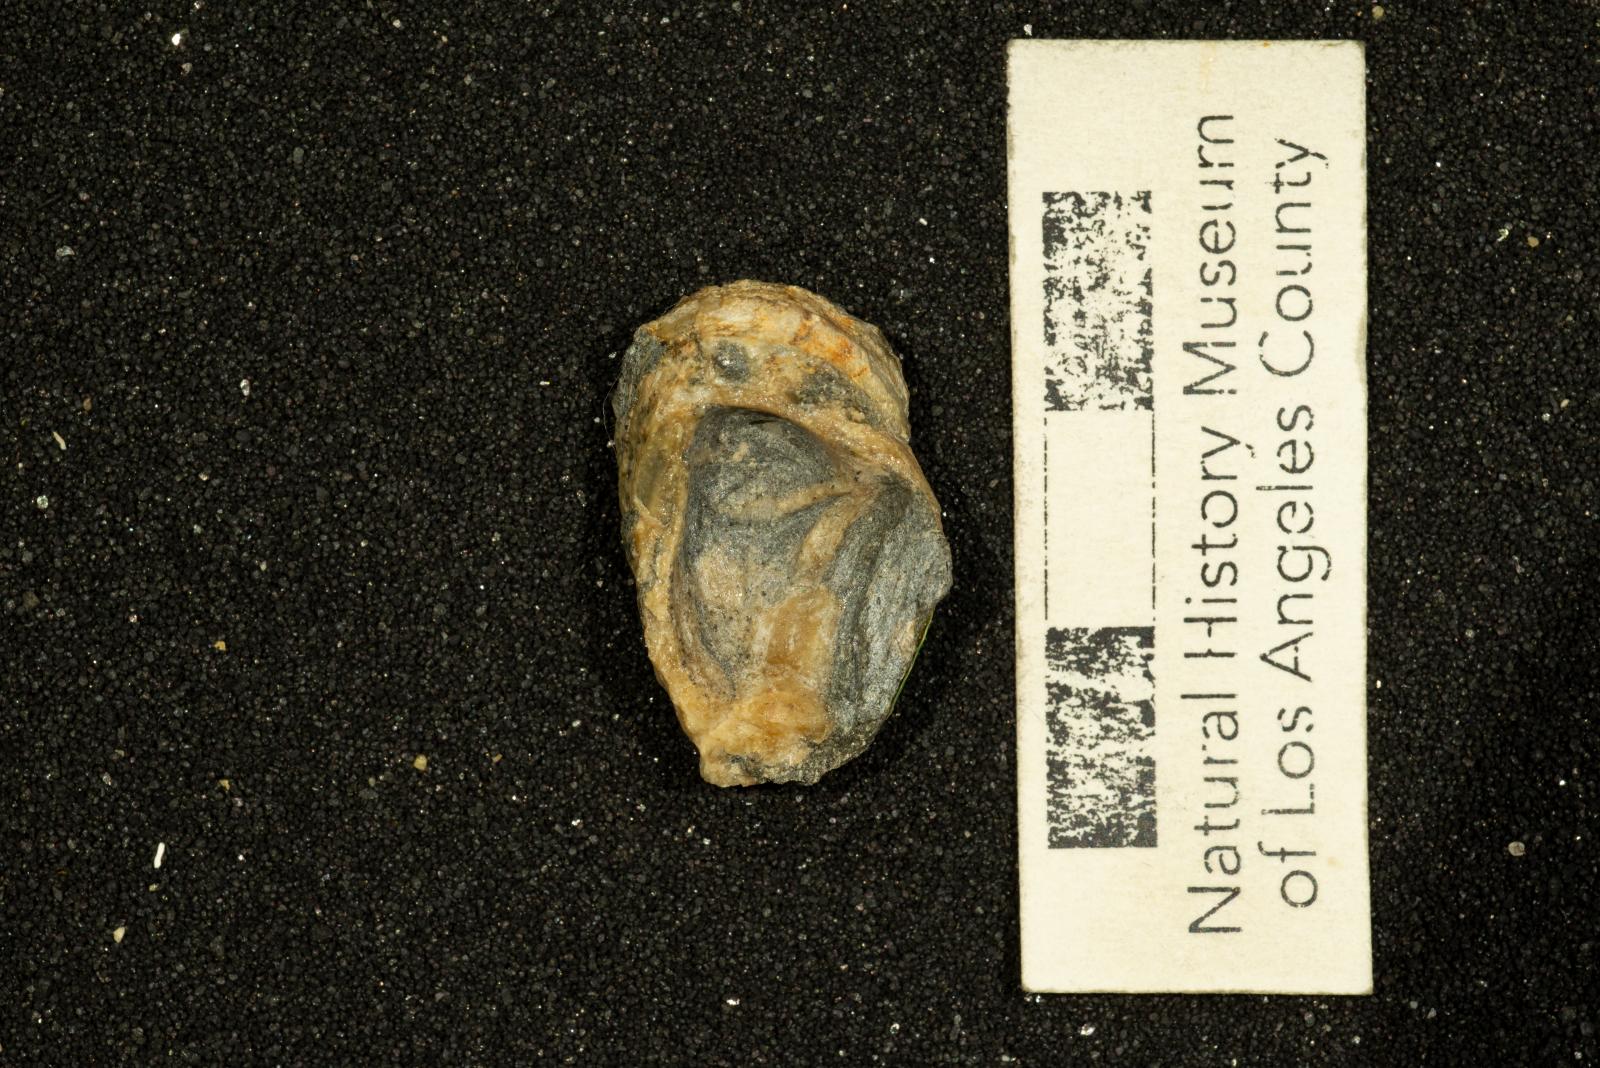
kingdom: Animalia
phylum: Mollusca
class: Gastropoda
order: Littorinimorpha
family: Calyptraeidae
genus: Lysis
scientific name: Lysis duplicosta
